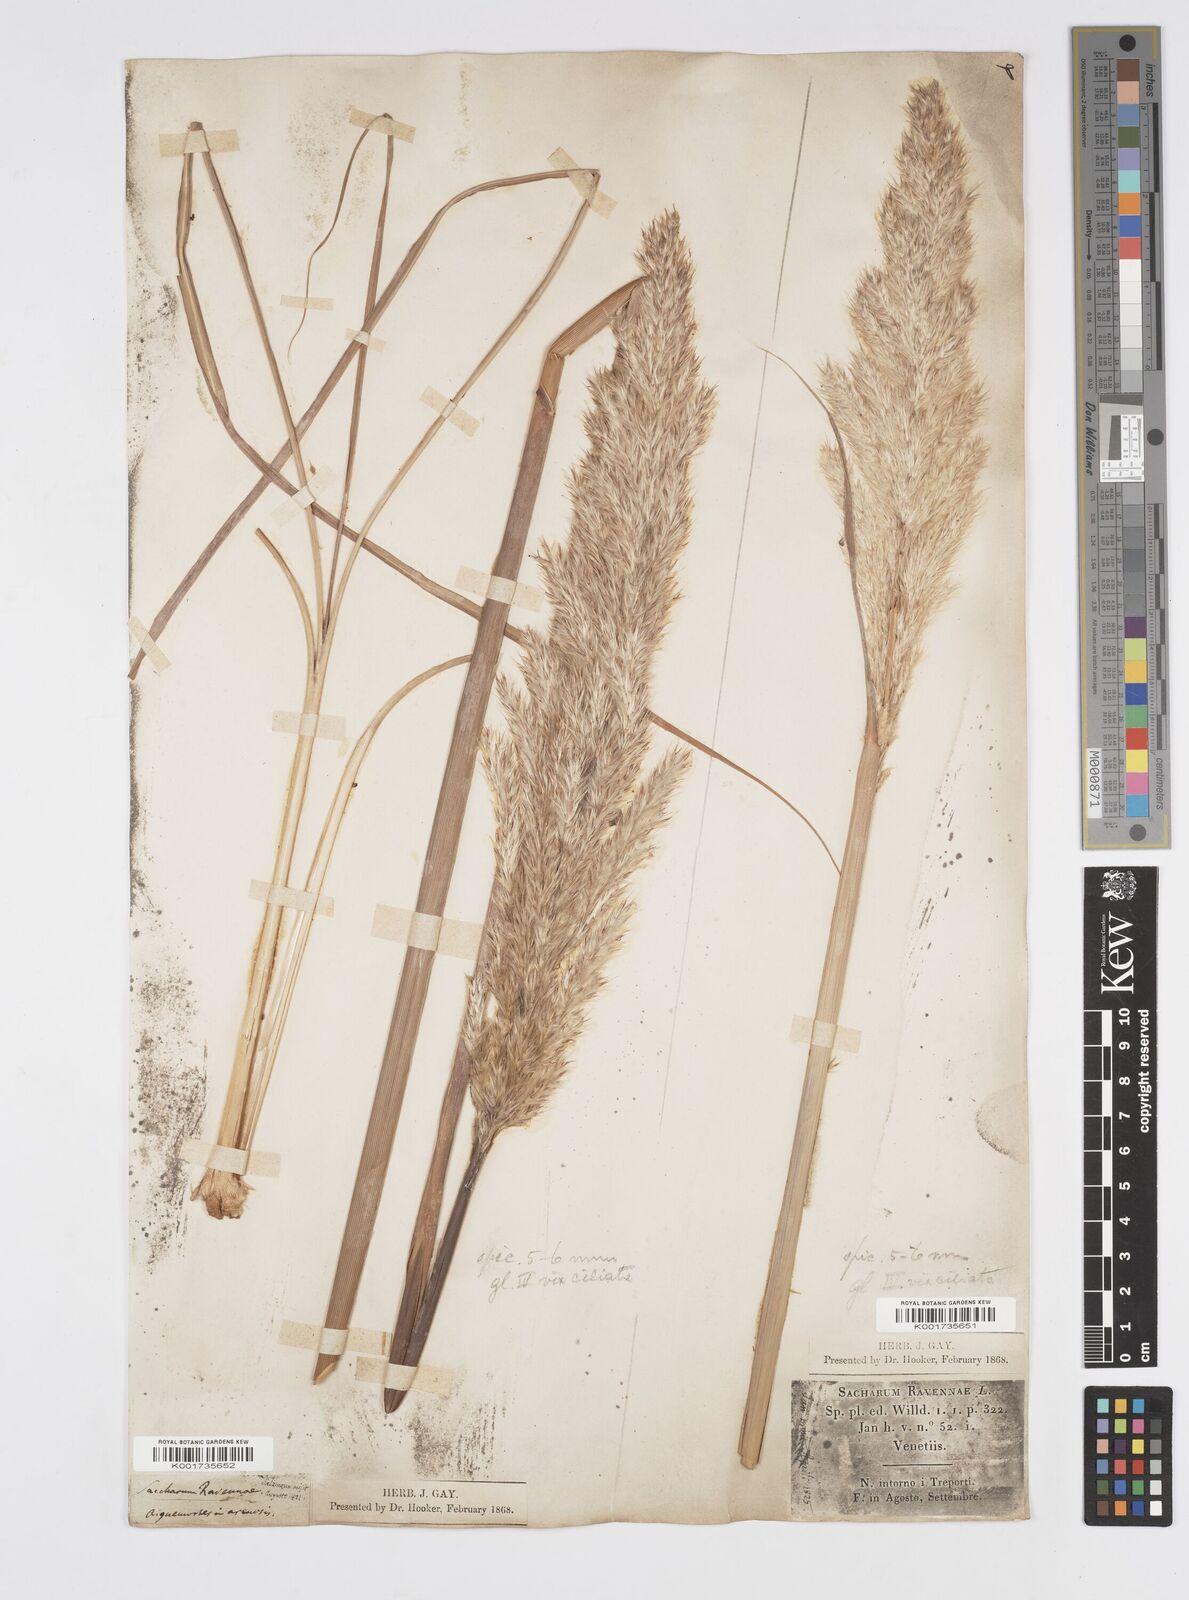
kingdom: Plantae
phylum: Tracheophyta
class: Liliopsida
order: Poales
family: Poaceae
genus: Tripidium
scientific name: Tripidium ravennae
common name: Ravenna grass
